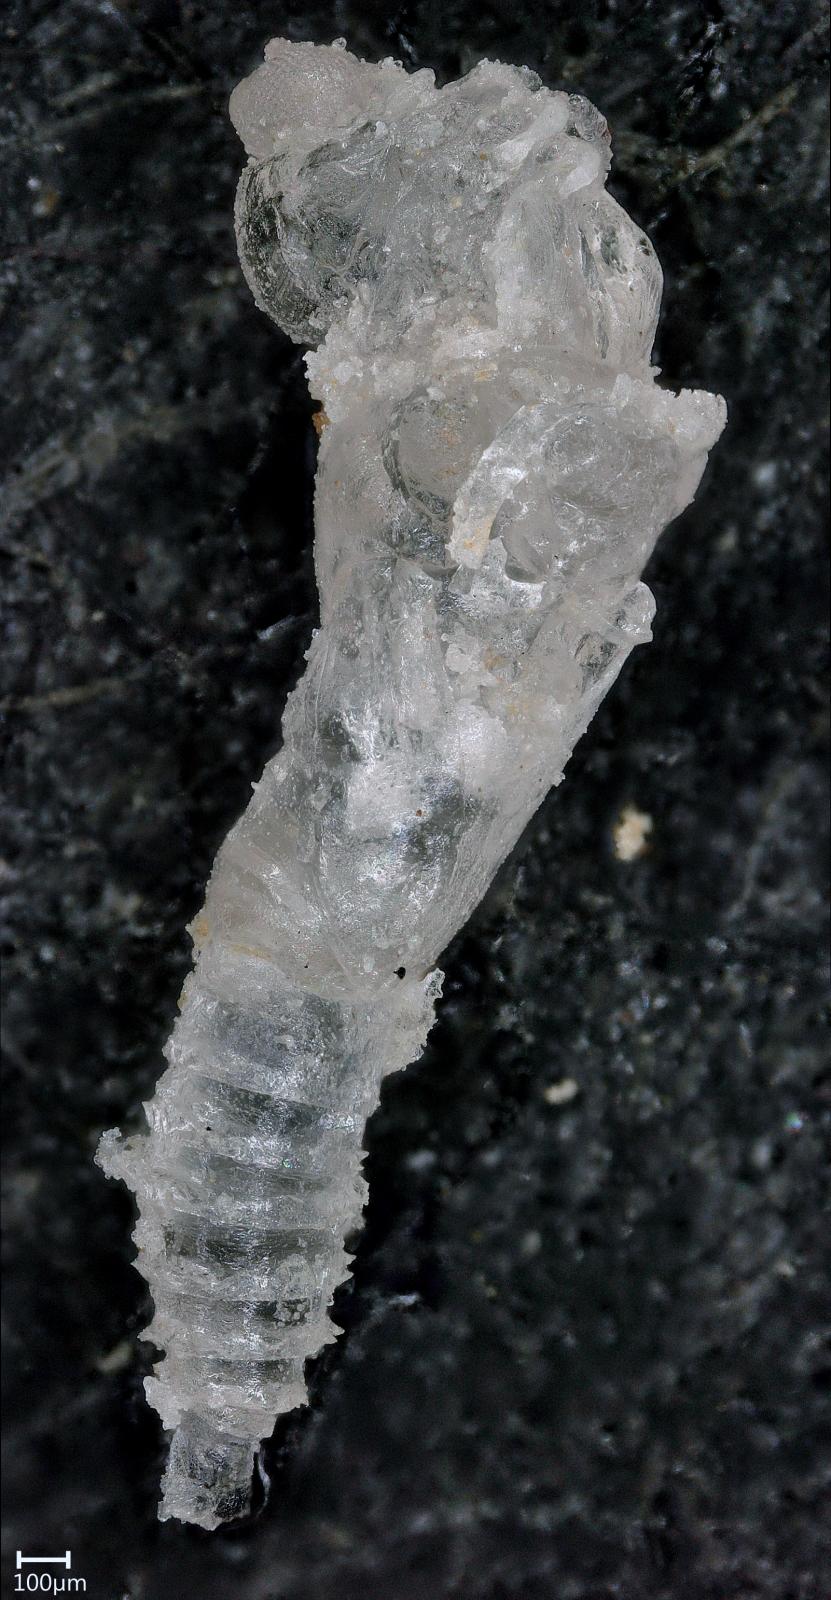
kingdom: Animalia
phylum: Arthropoda
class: Insecta
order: Diptera
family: Ceratopogonidae
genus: Dasyhelea
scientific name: Dasyhelea australia
